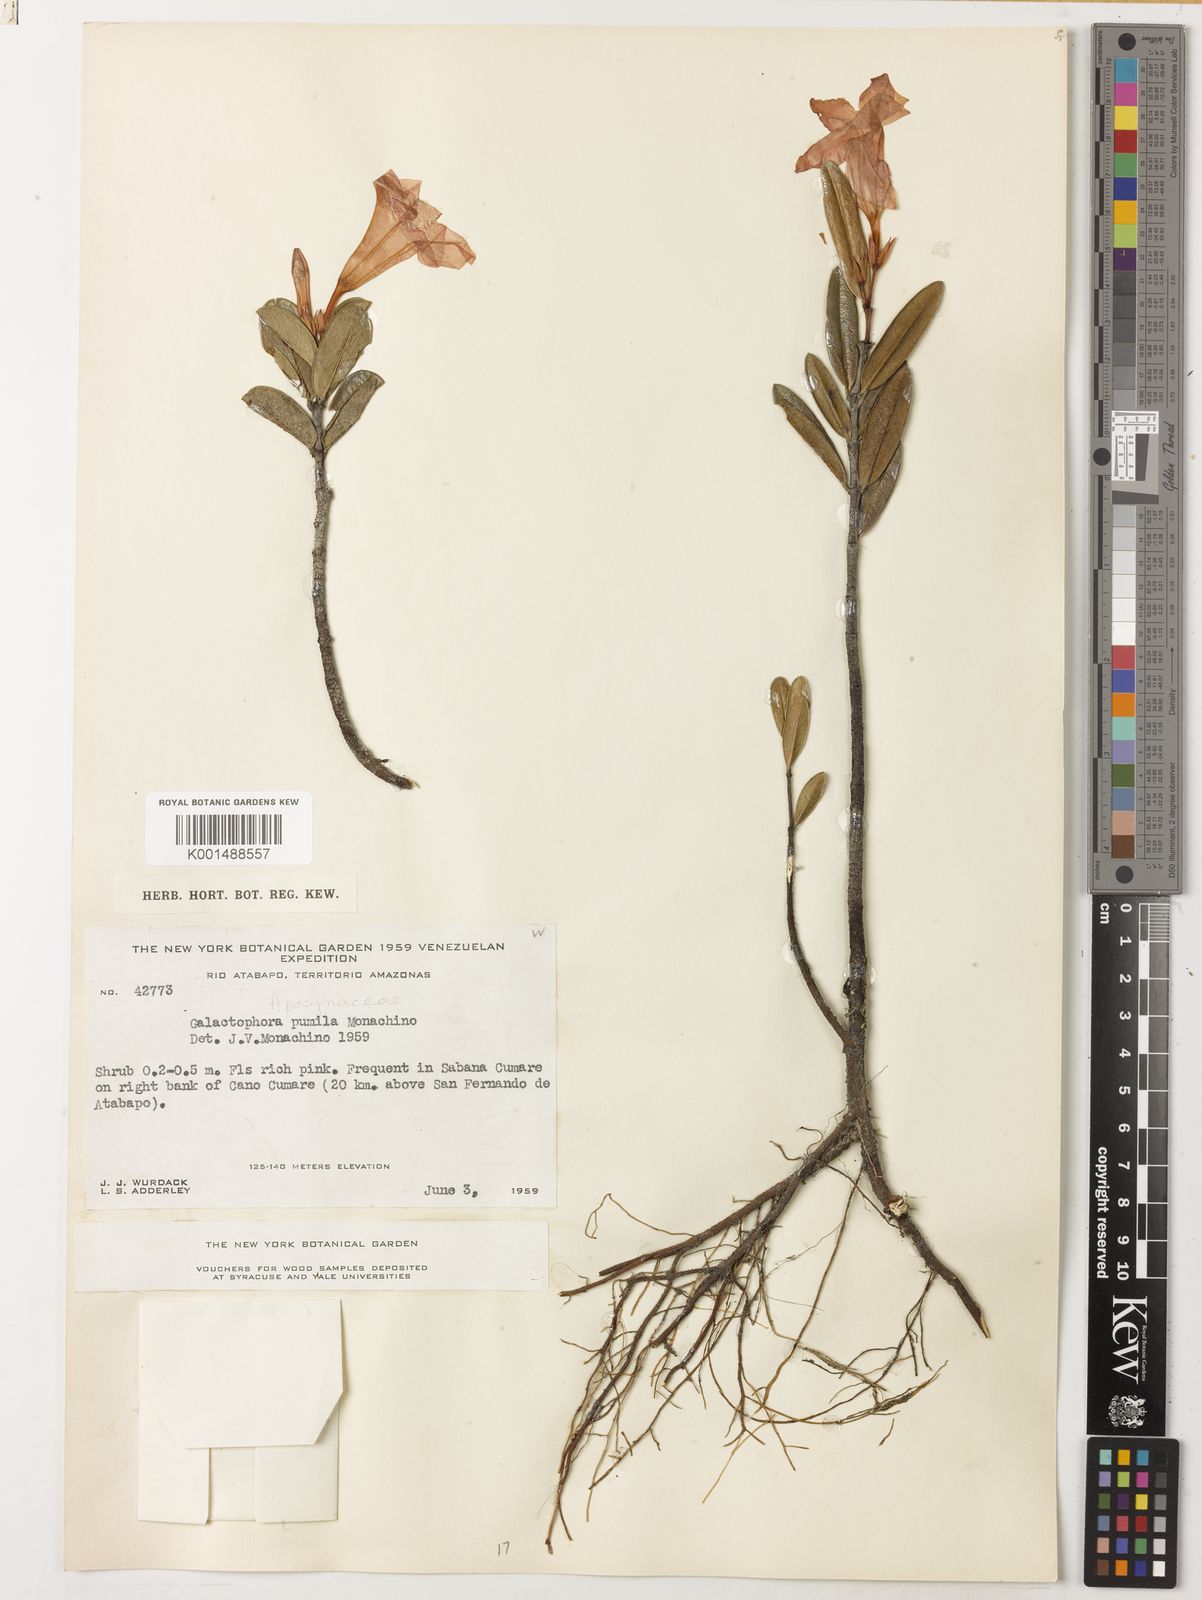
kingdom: Plantae
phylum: Tracheophyta
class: Magnoliopsida
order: Gentianales
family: Apocynaceae
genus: Galactophora
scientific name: Galactophora pumila
